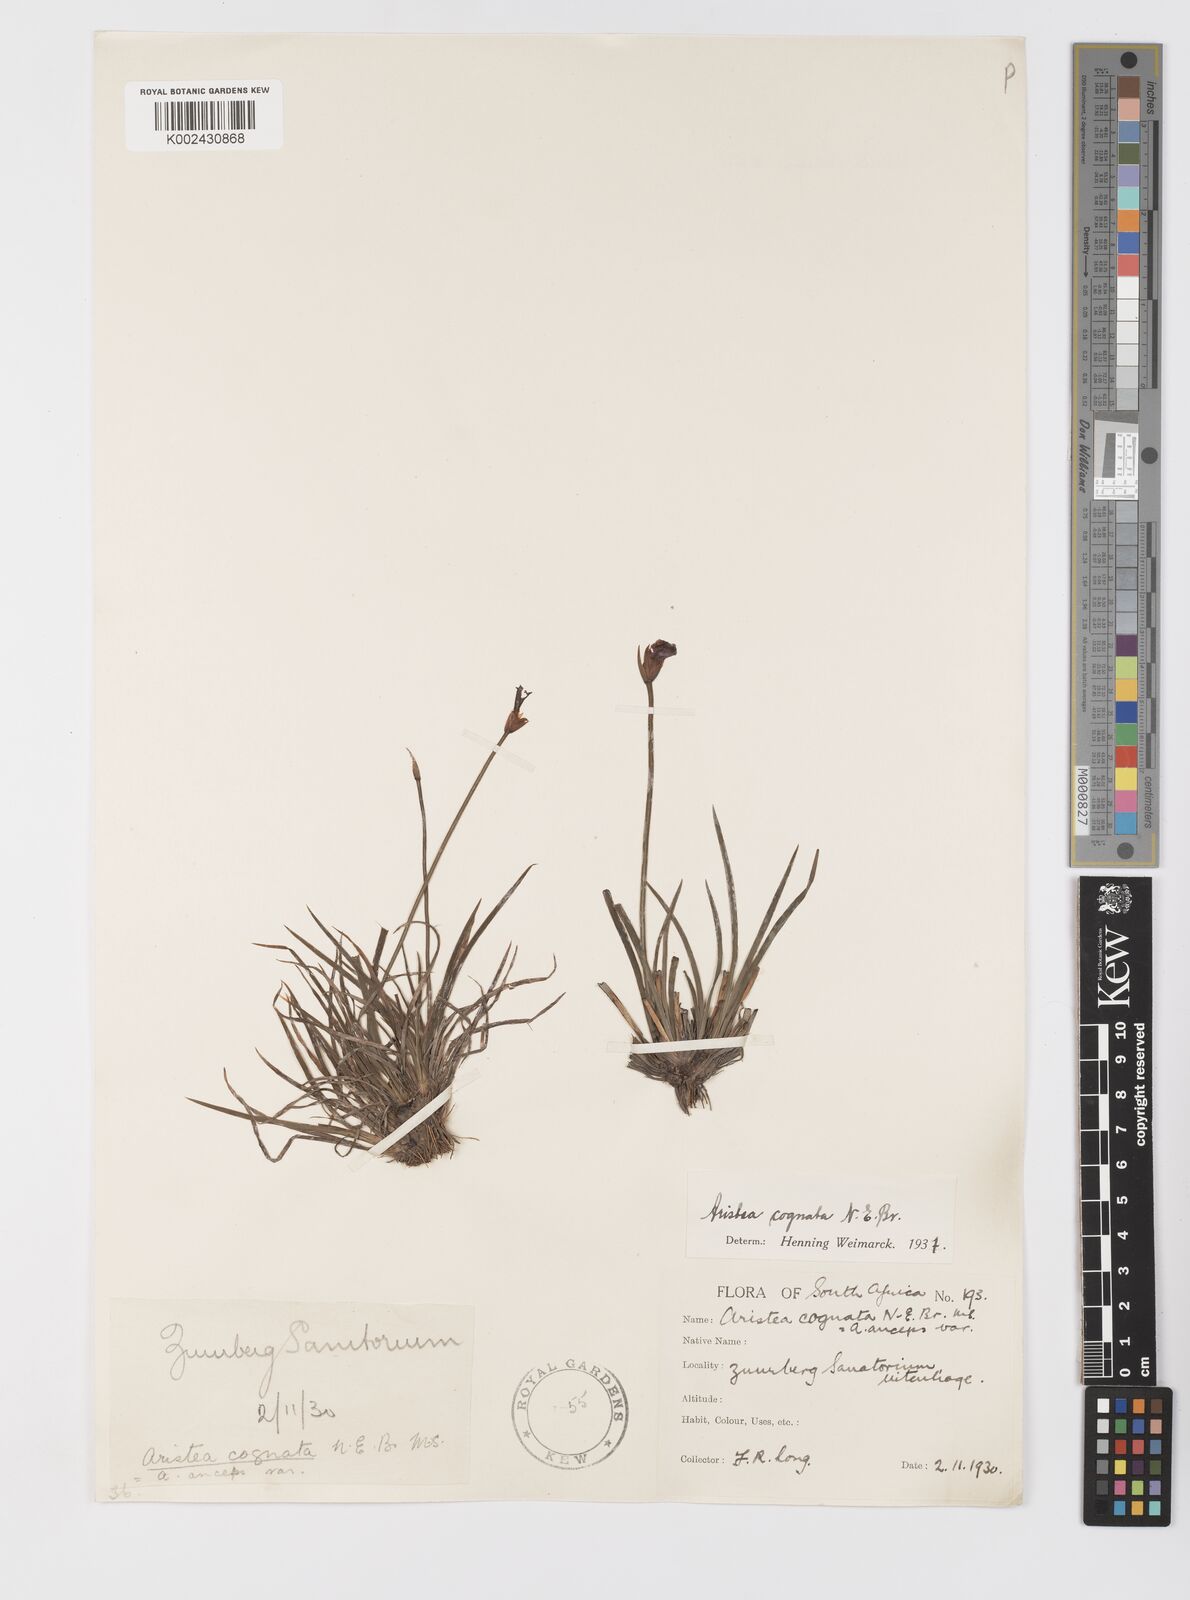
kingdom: Plantae
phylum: Tracheophyta
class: Liliopsida
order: Asparagales
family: Iridaceae
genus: Aristea
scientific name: Aristea abyssinica
